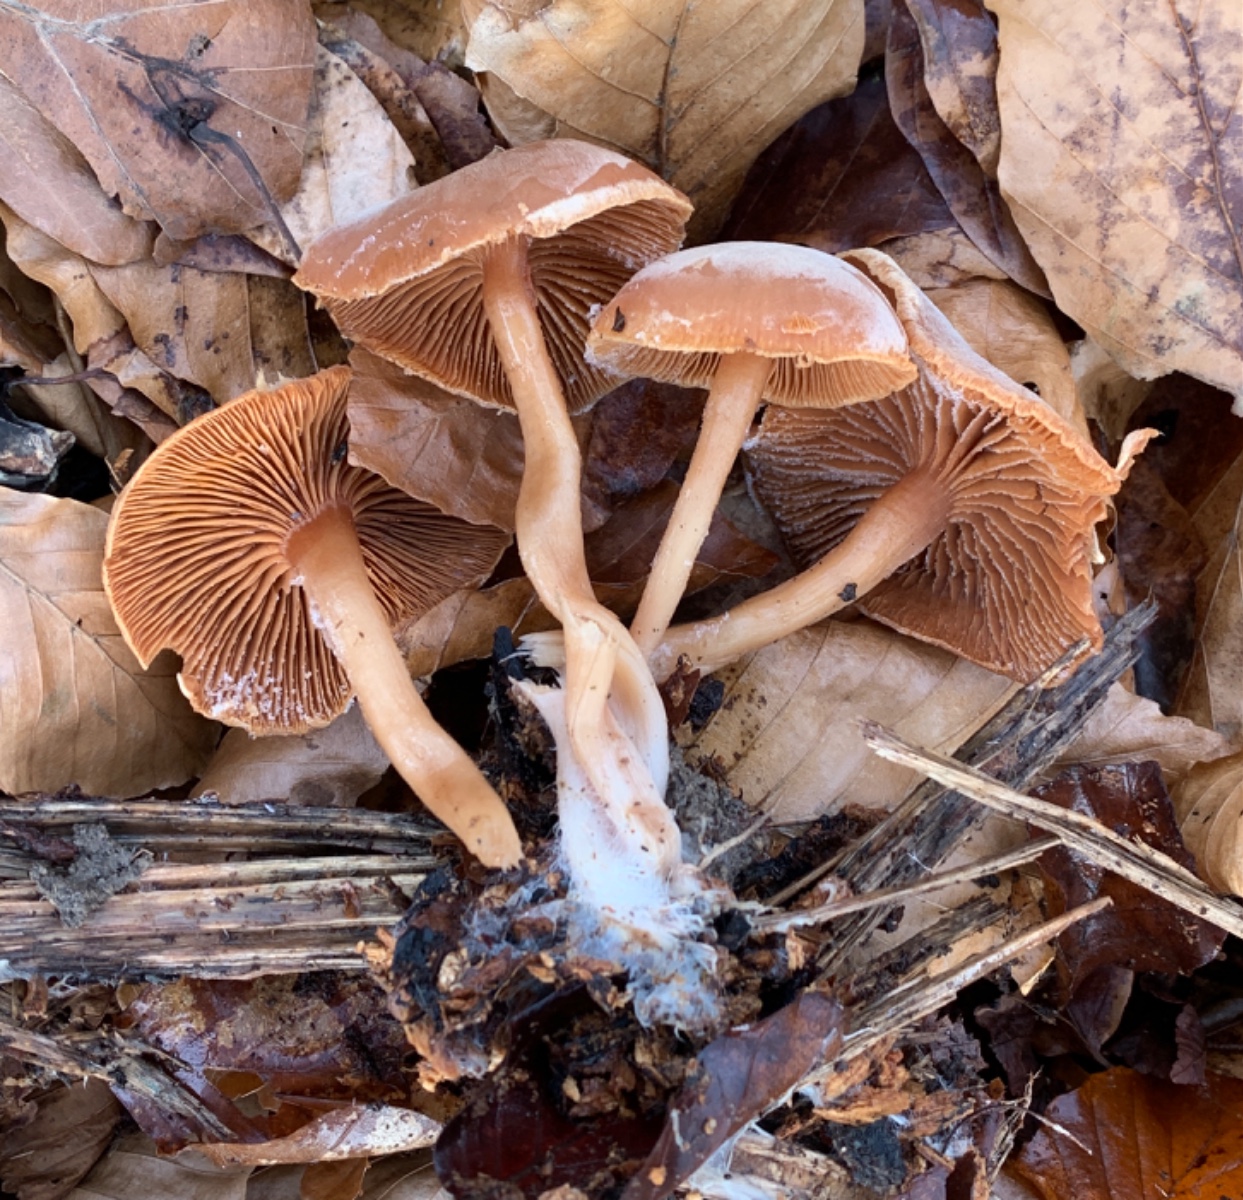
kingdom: Fungi
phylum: Basidiomycota
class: Agaricomycetes
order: Agaricales
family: Tubariaceae
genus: Tubaria
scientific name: Tubaria furfuracea
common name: kliddet fnughat
